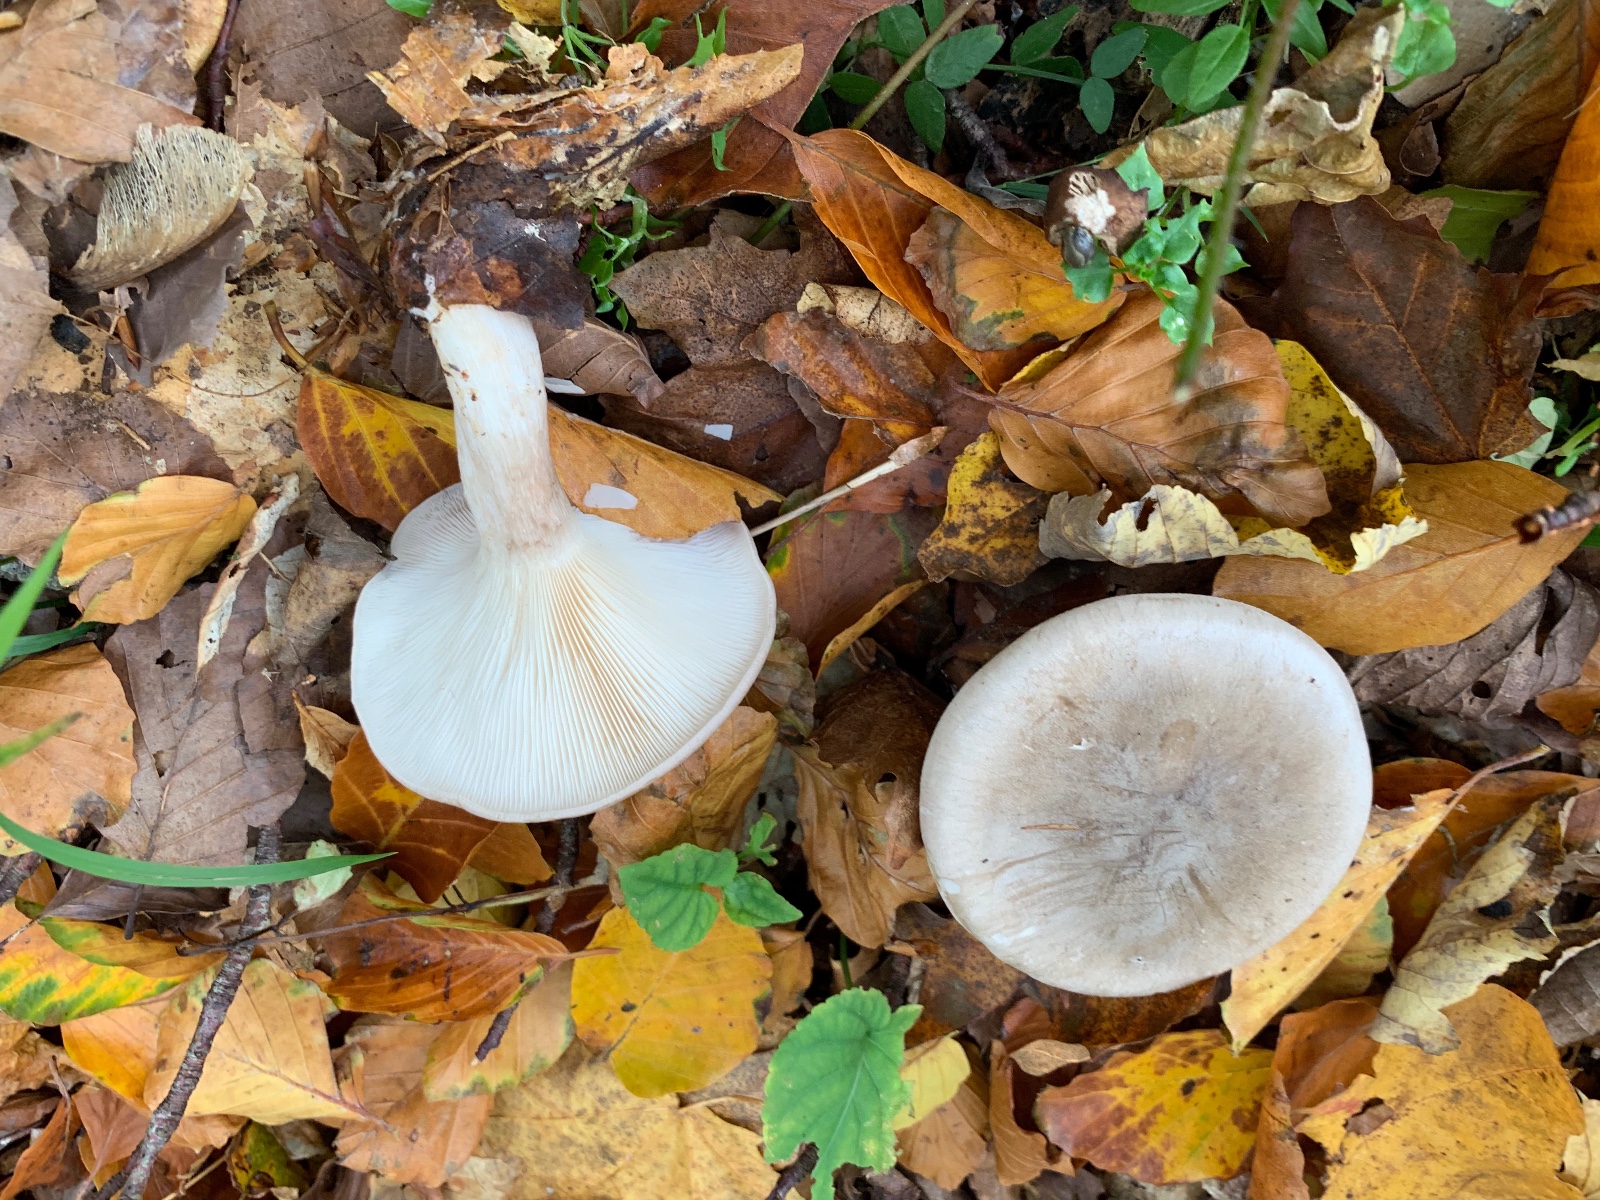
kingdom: Fungi
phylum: Basidiomycota
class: Agaricomycetes
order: Agaricales
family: Tricholomataceae
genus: Clitocybe
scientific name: Clitocybe nebularis
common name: tåge-tragthat
